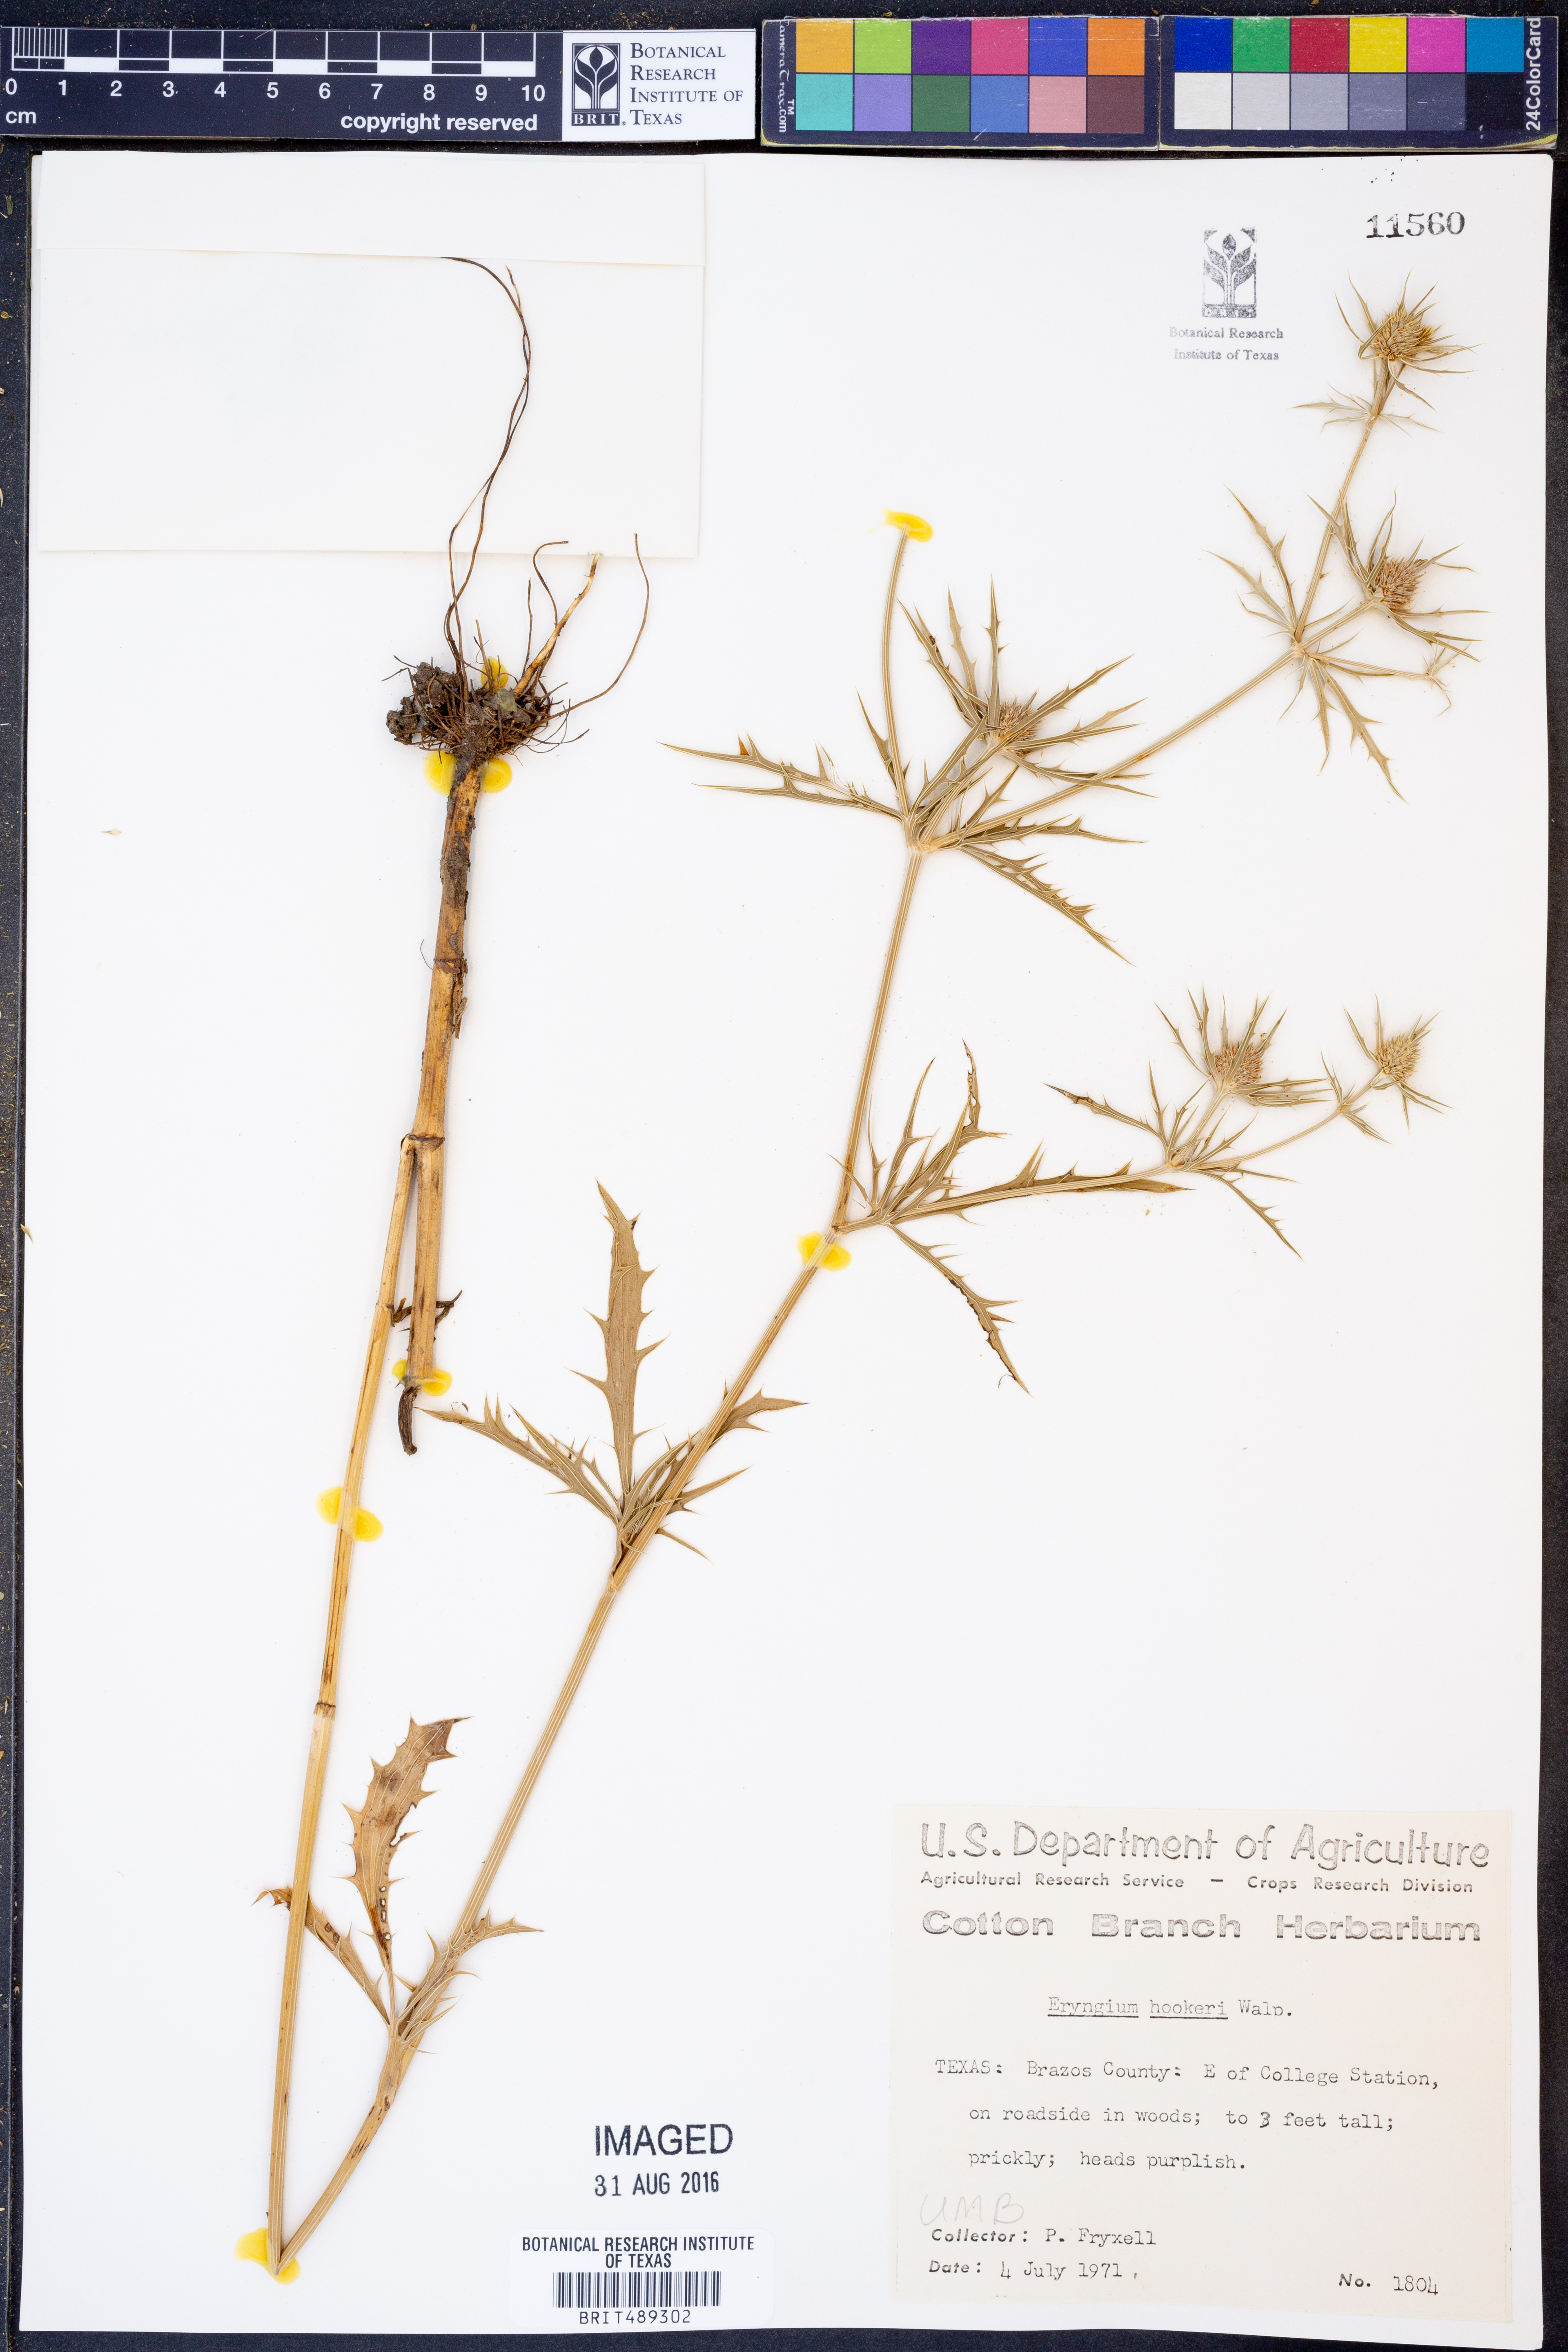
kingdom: Plantae
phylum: Tracheophyta
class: Magnoliopsida
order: Apiales
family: Apiaceae
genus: Eryngium
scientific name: Eryngium hookeri
